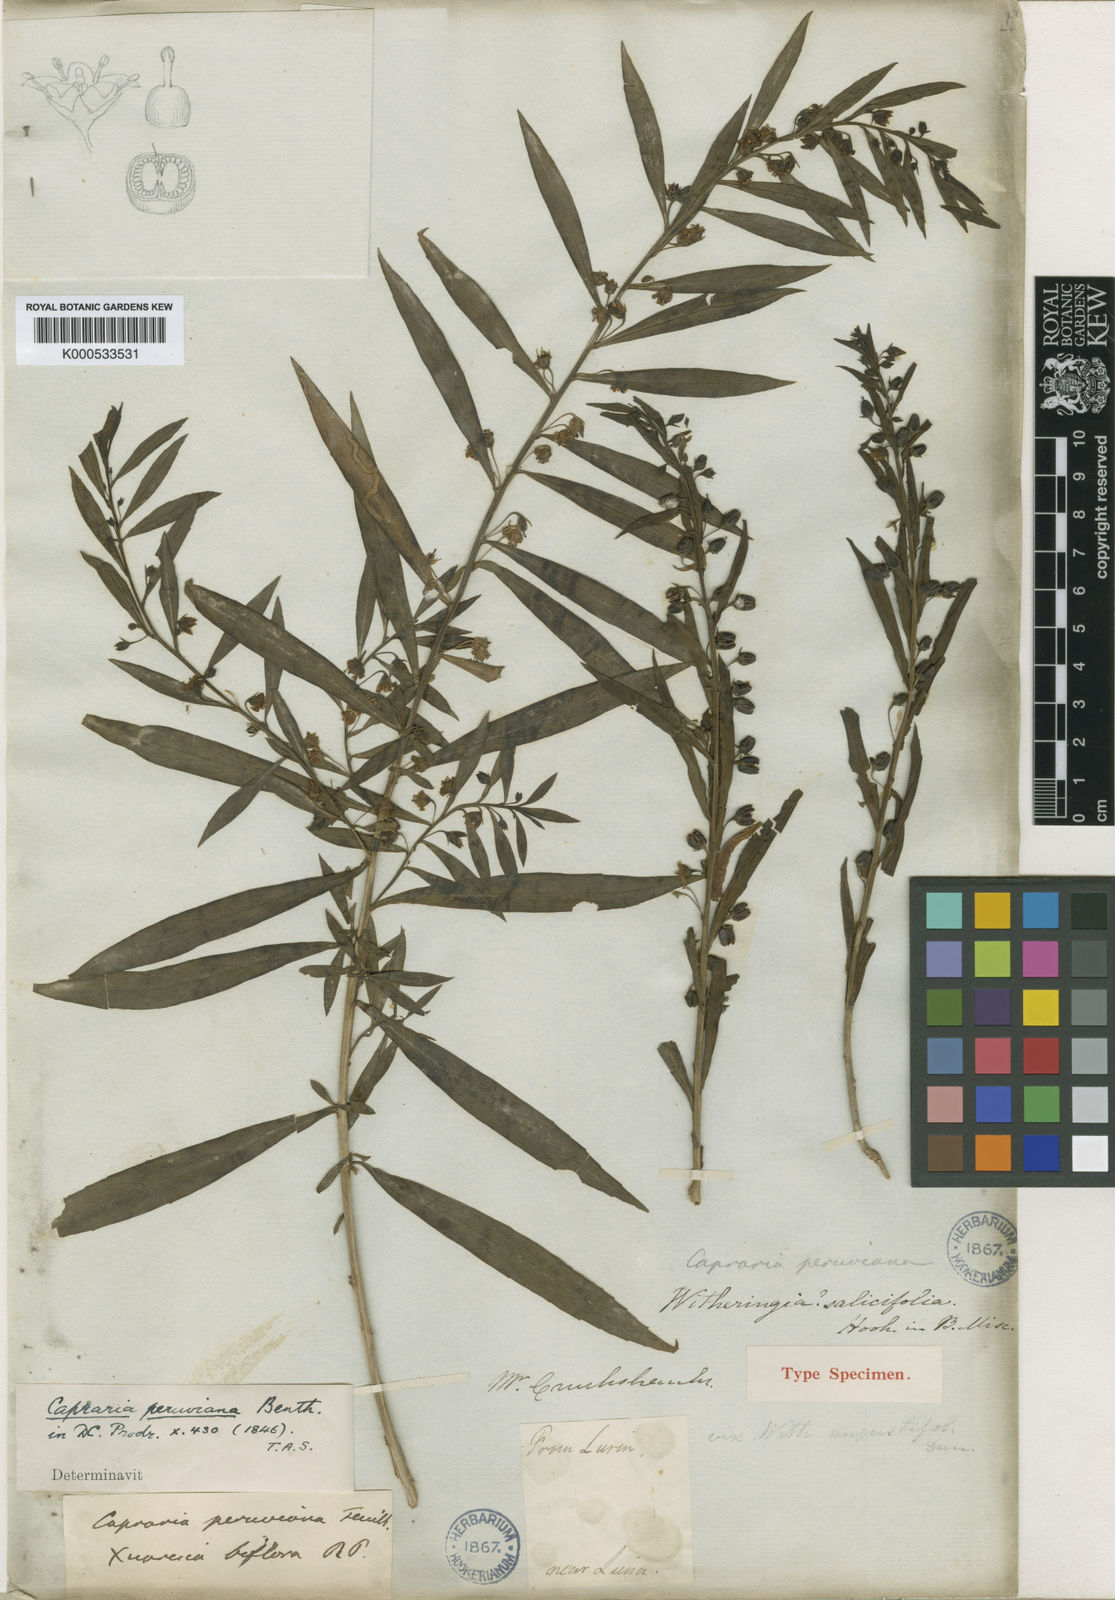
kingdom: Plantae
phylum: Tracheophyta
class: Magnoliopsida
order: Lamiales
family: Scrophulariaceae
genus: Capraria
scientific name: Capraria peruviana
